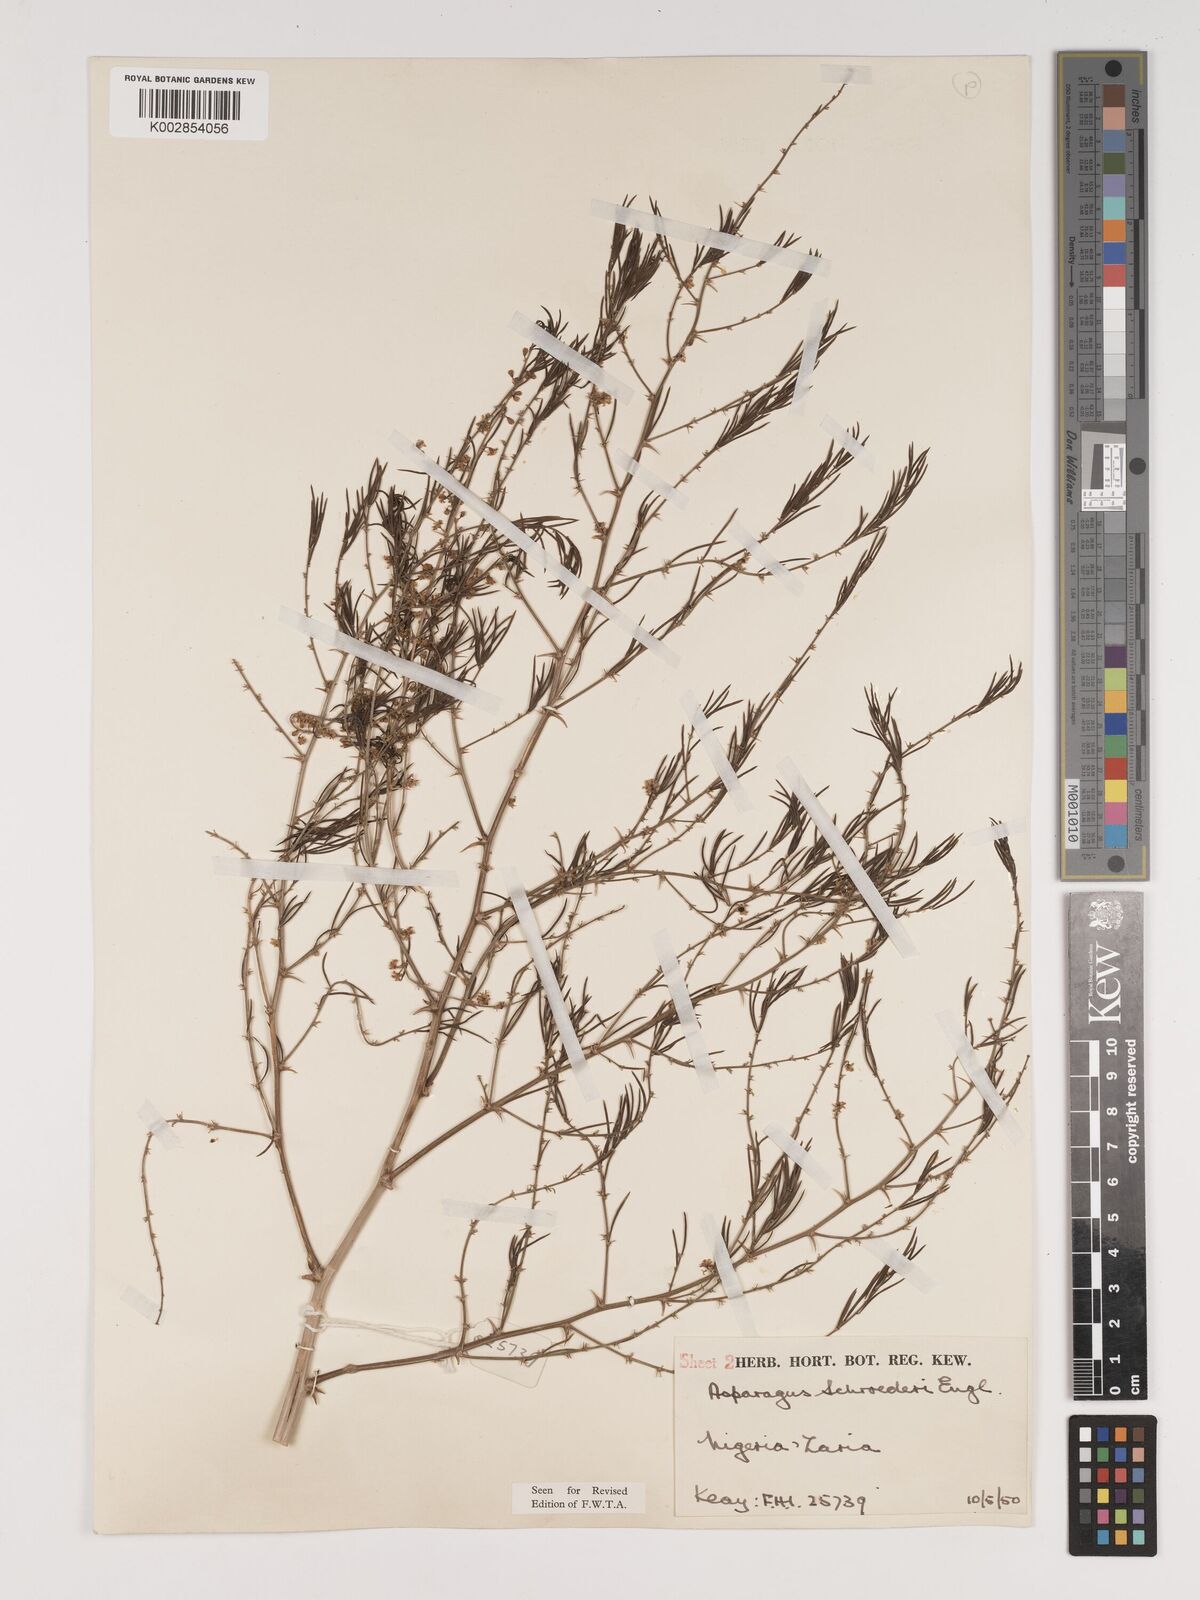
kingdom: Plantae
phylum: Tracheophyta
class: Liliopsida
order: Asparagales
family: Asparagaceae
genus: Asparagus
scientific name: Asparagus schroederi
